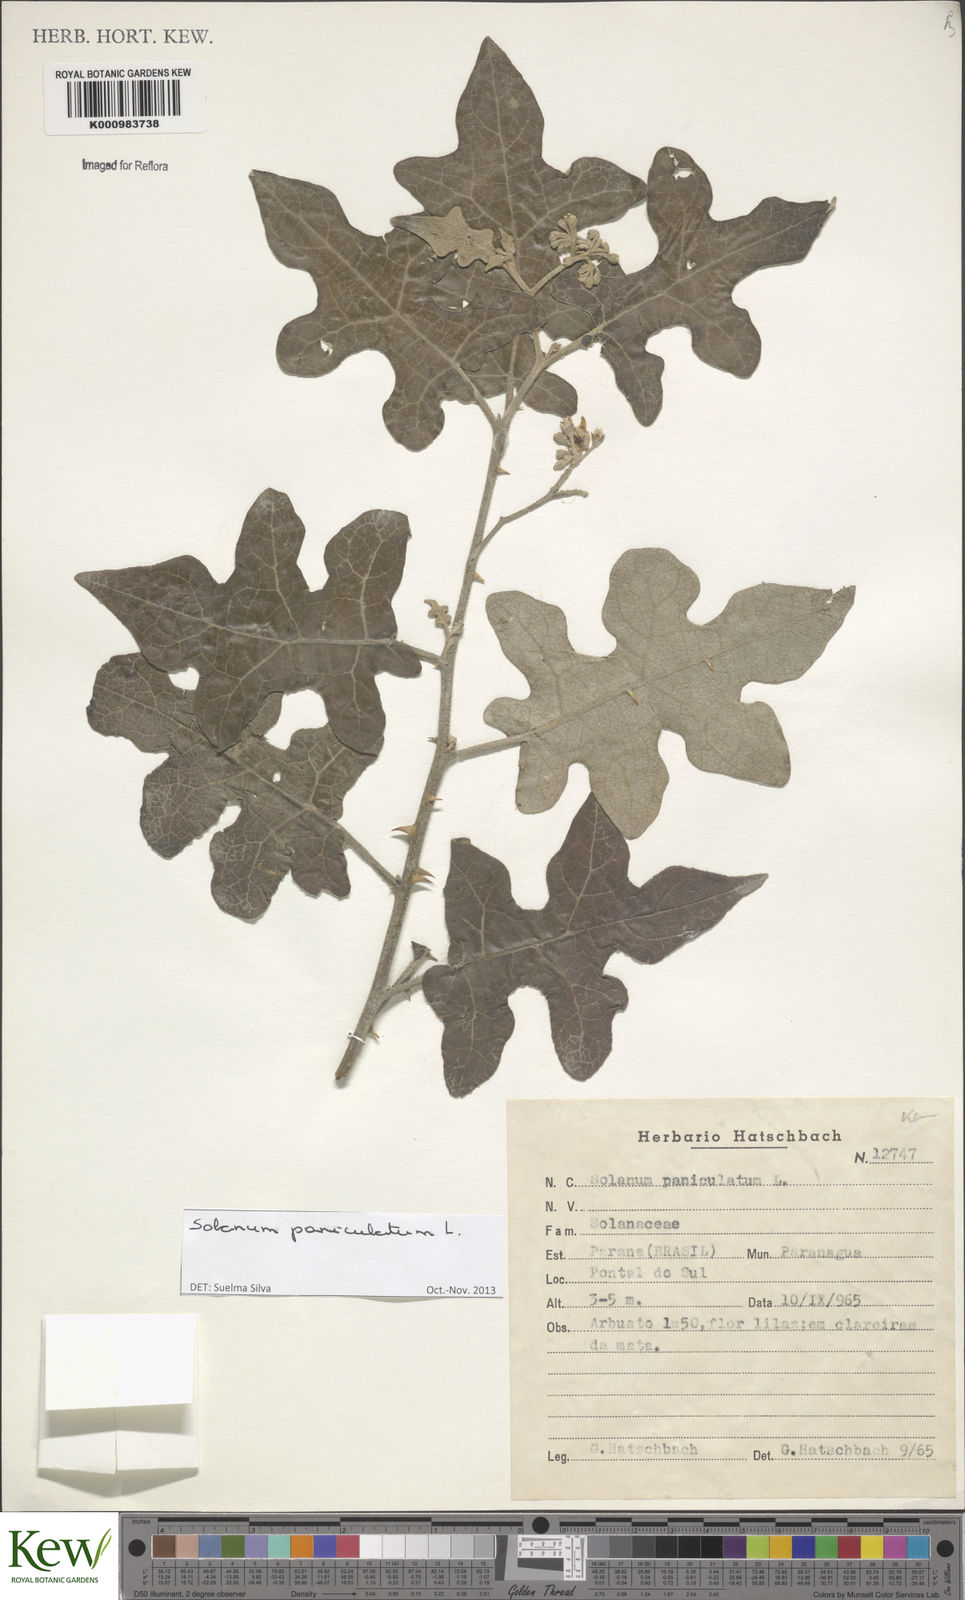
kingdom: Plantae
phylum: Tracheophyta
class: Magnoliopsida
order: Solanales
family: Solanaceae
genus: Solanum
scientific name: Solanum paniculatum
